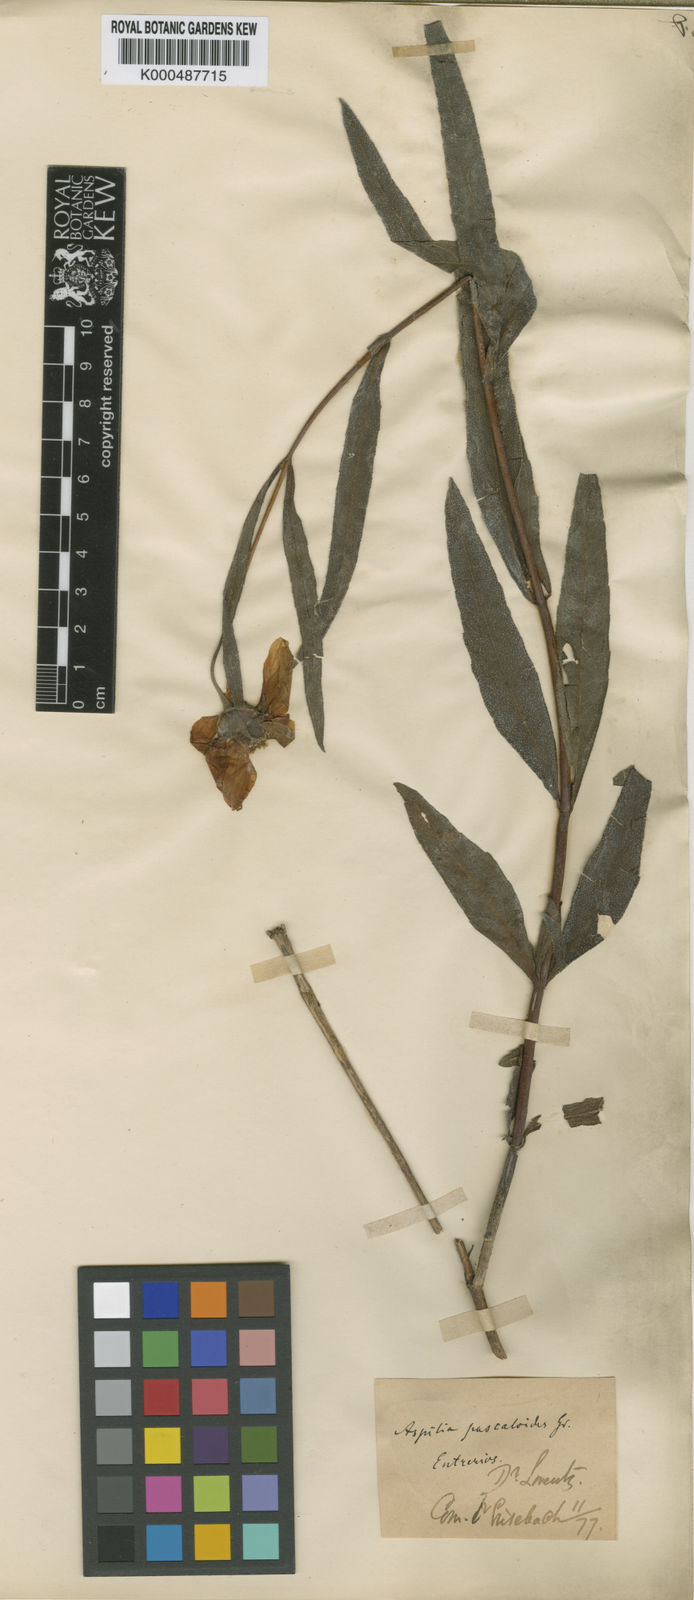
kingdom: Plantae
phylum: Tracheophyta
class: Magnoliopsida
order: Asterales
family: Asteraceae
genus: Wedelia
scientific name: Wedelia pascalioides
